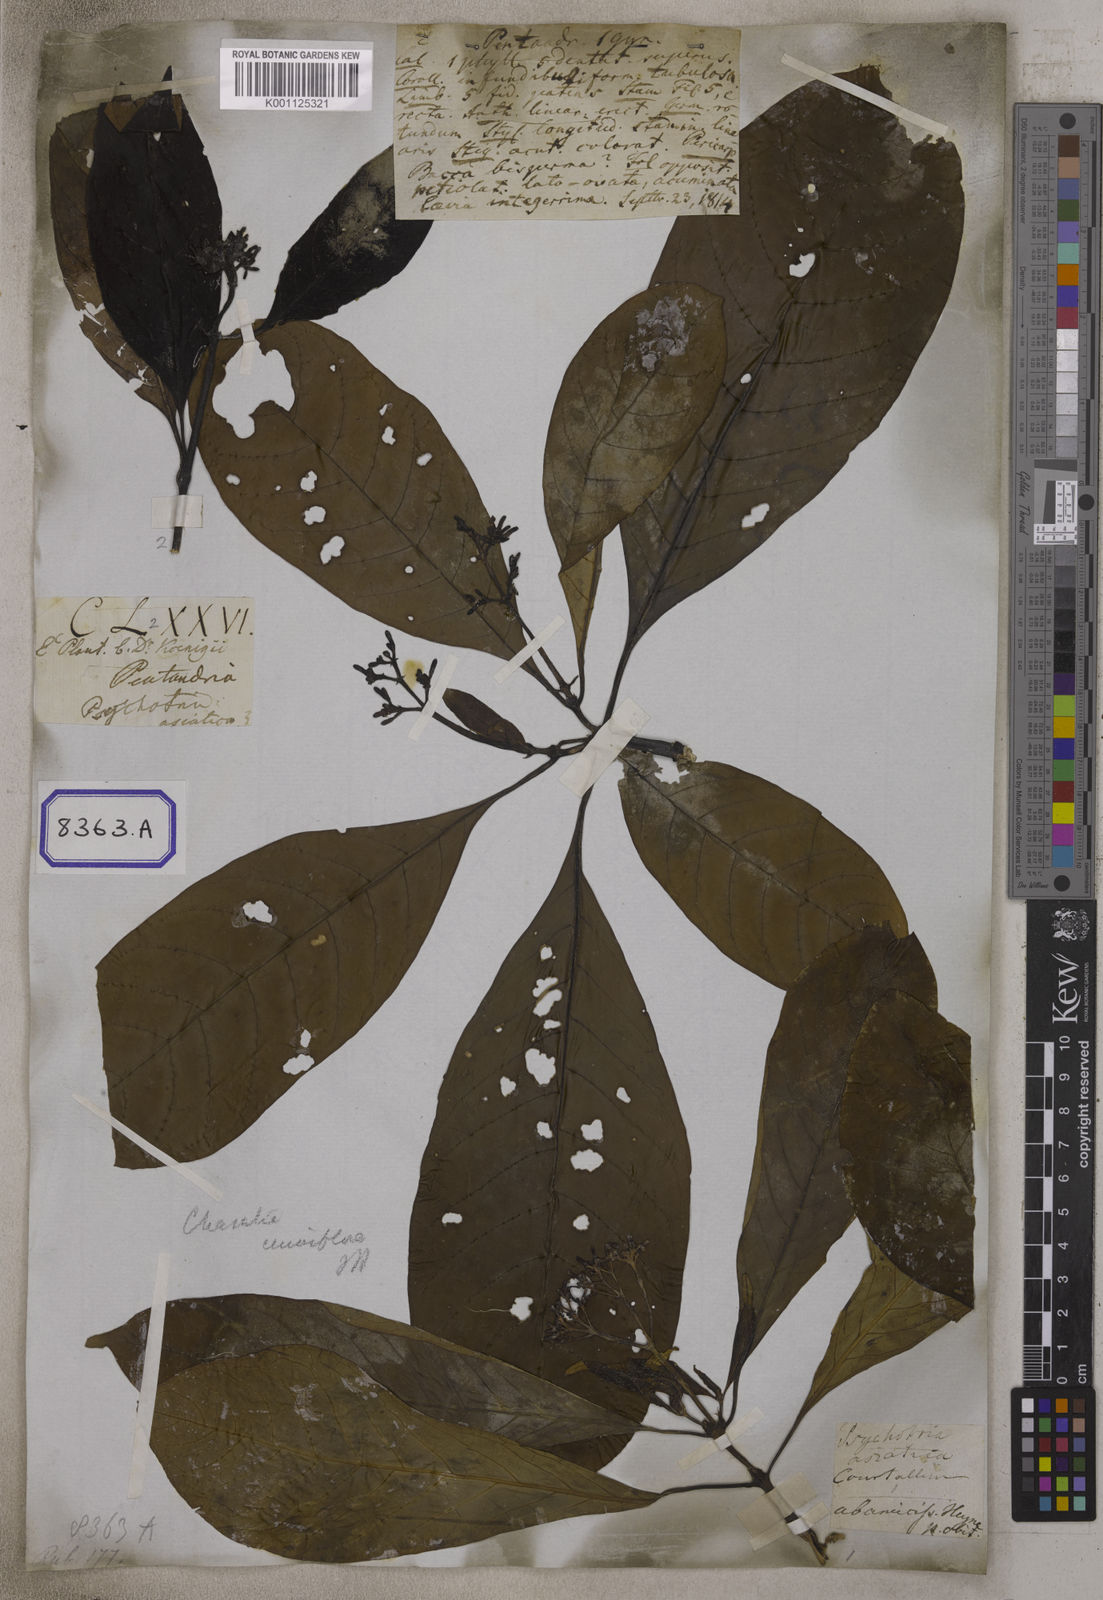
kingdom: Plantae
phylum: Tracheophyta
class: Magnoliopsida
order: Gentianales
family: Rubiaceae
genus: Psychotria
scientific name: Psychotria
